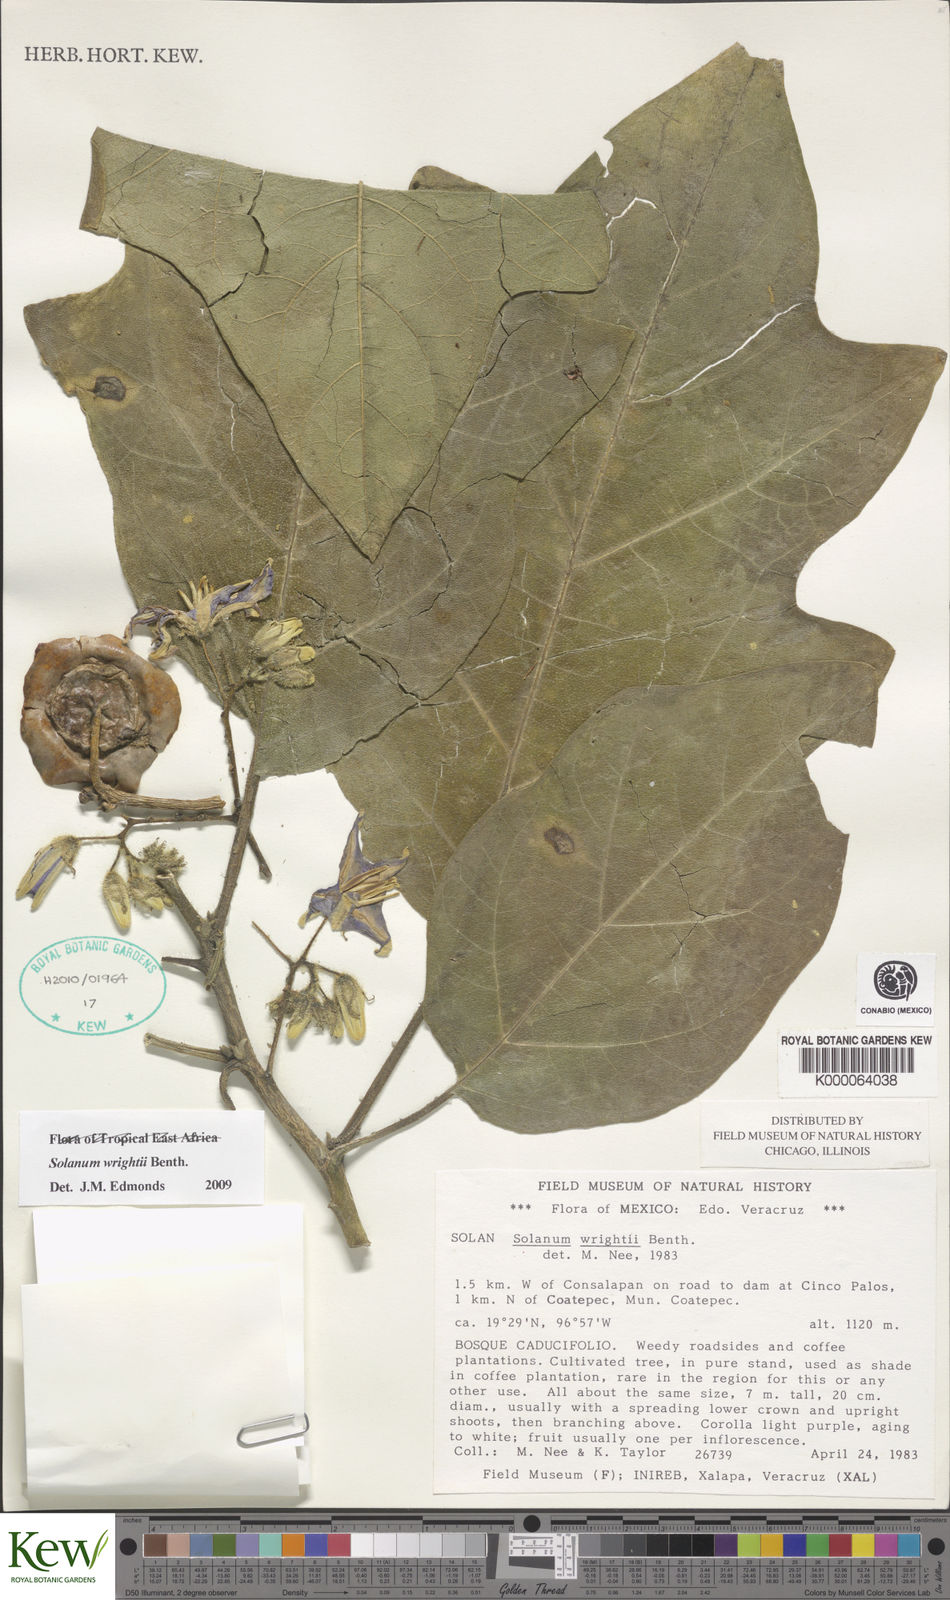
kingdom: Plantae
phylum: Tracheophyta
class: Magnoliopsida
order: Solanales
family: Solanaceae
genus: Solanum
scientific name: Solanum wrightii
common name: Brazilian potato-tree
